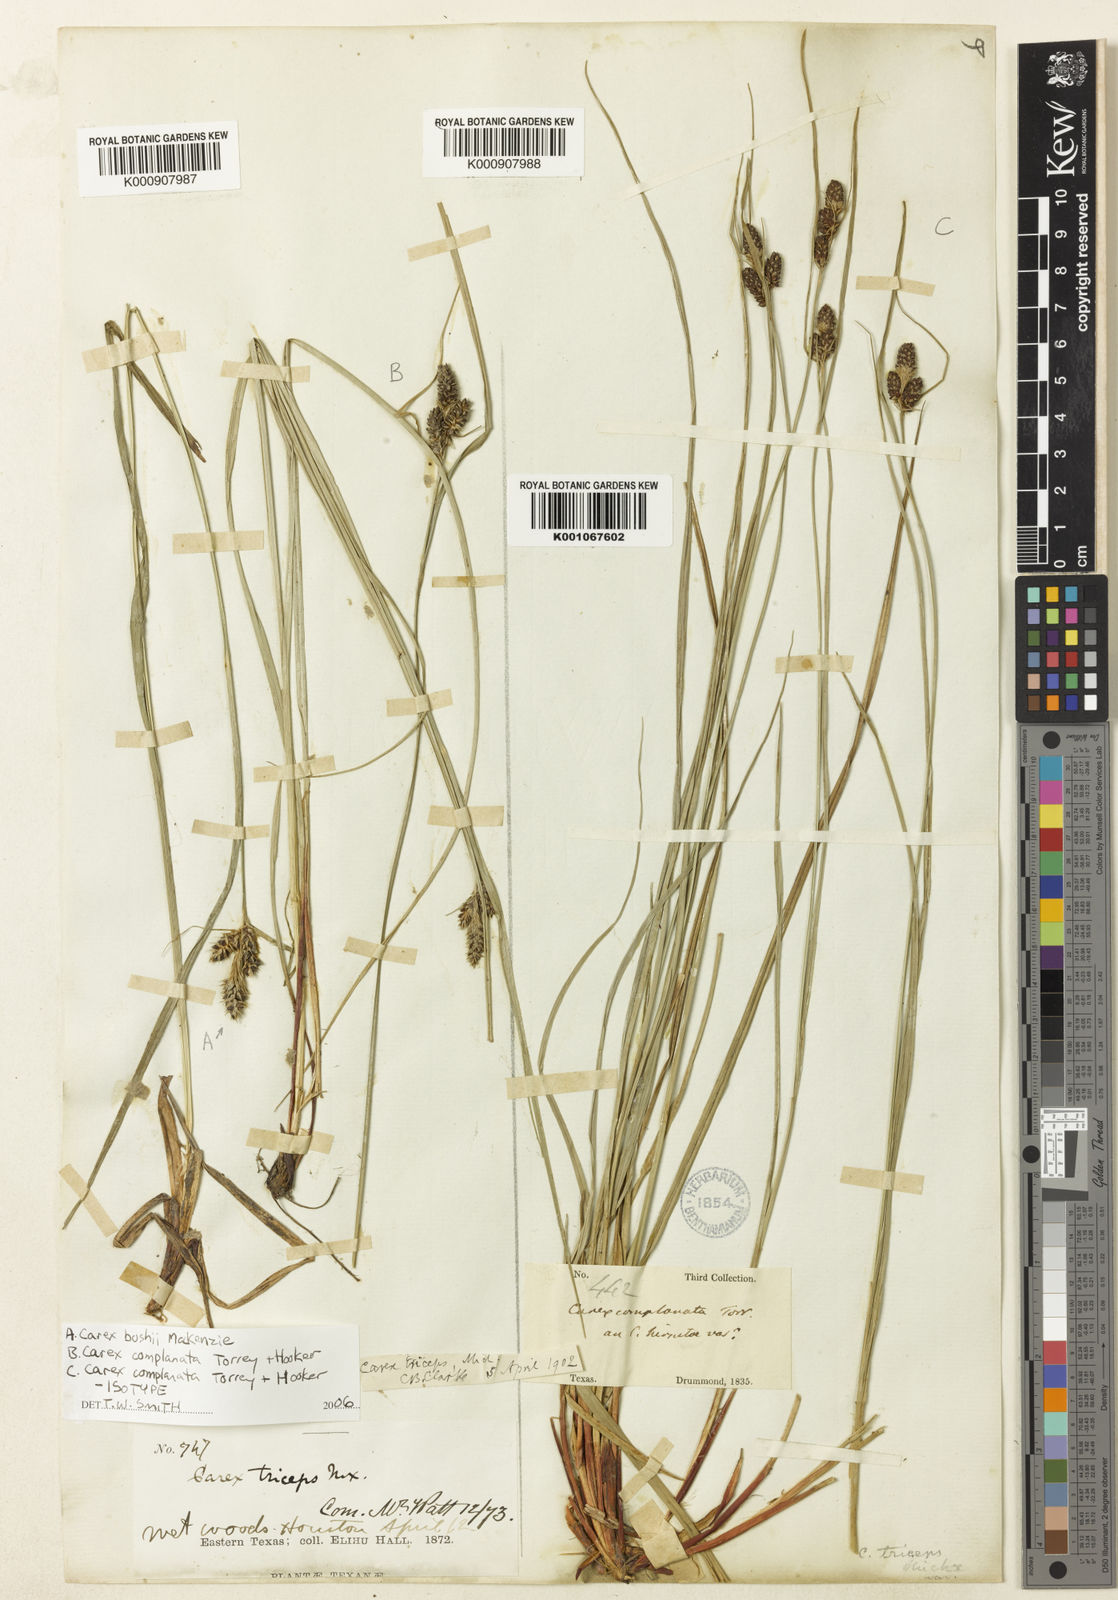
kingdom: Plantae
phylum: Tracheophyta
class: Liliopsida
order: Poales
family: Cyperaceae
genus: Carex
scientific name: Carex complanata
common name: Hirsute sedge
